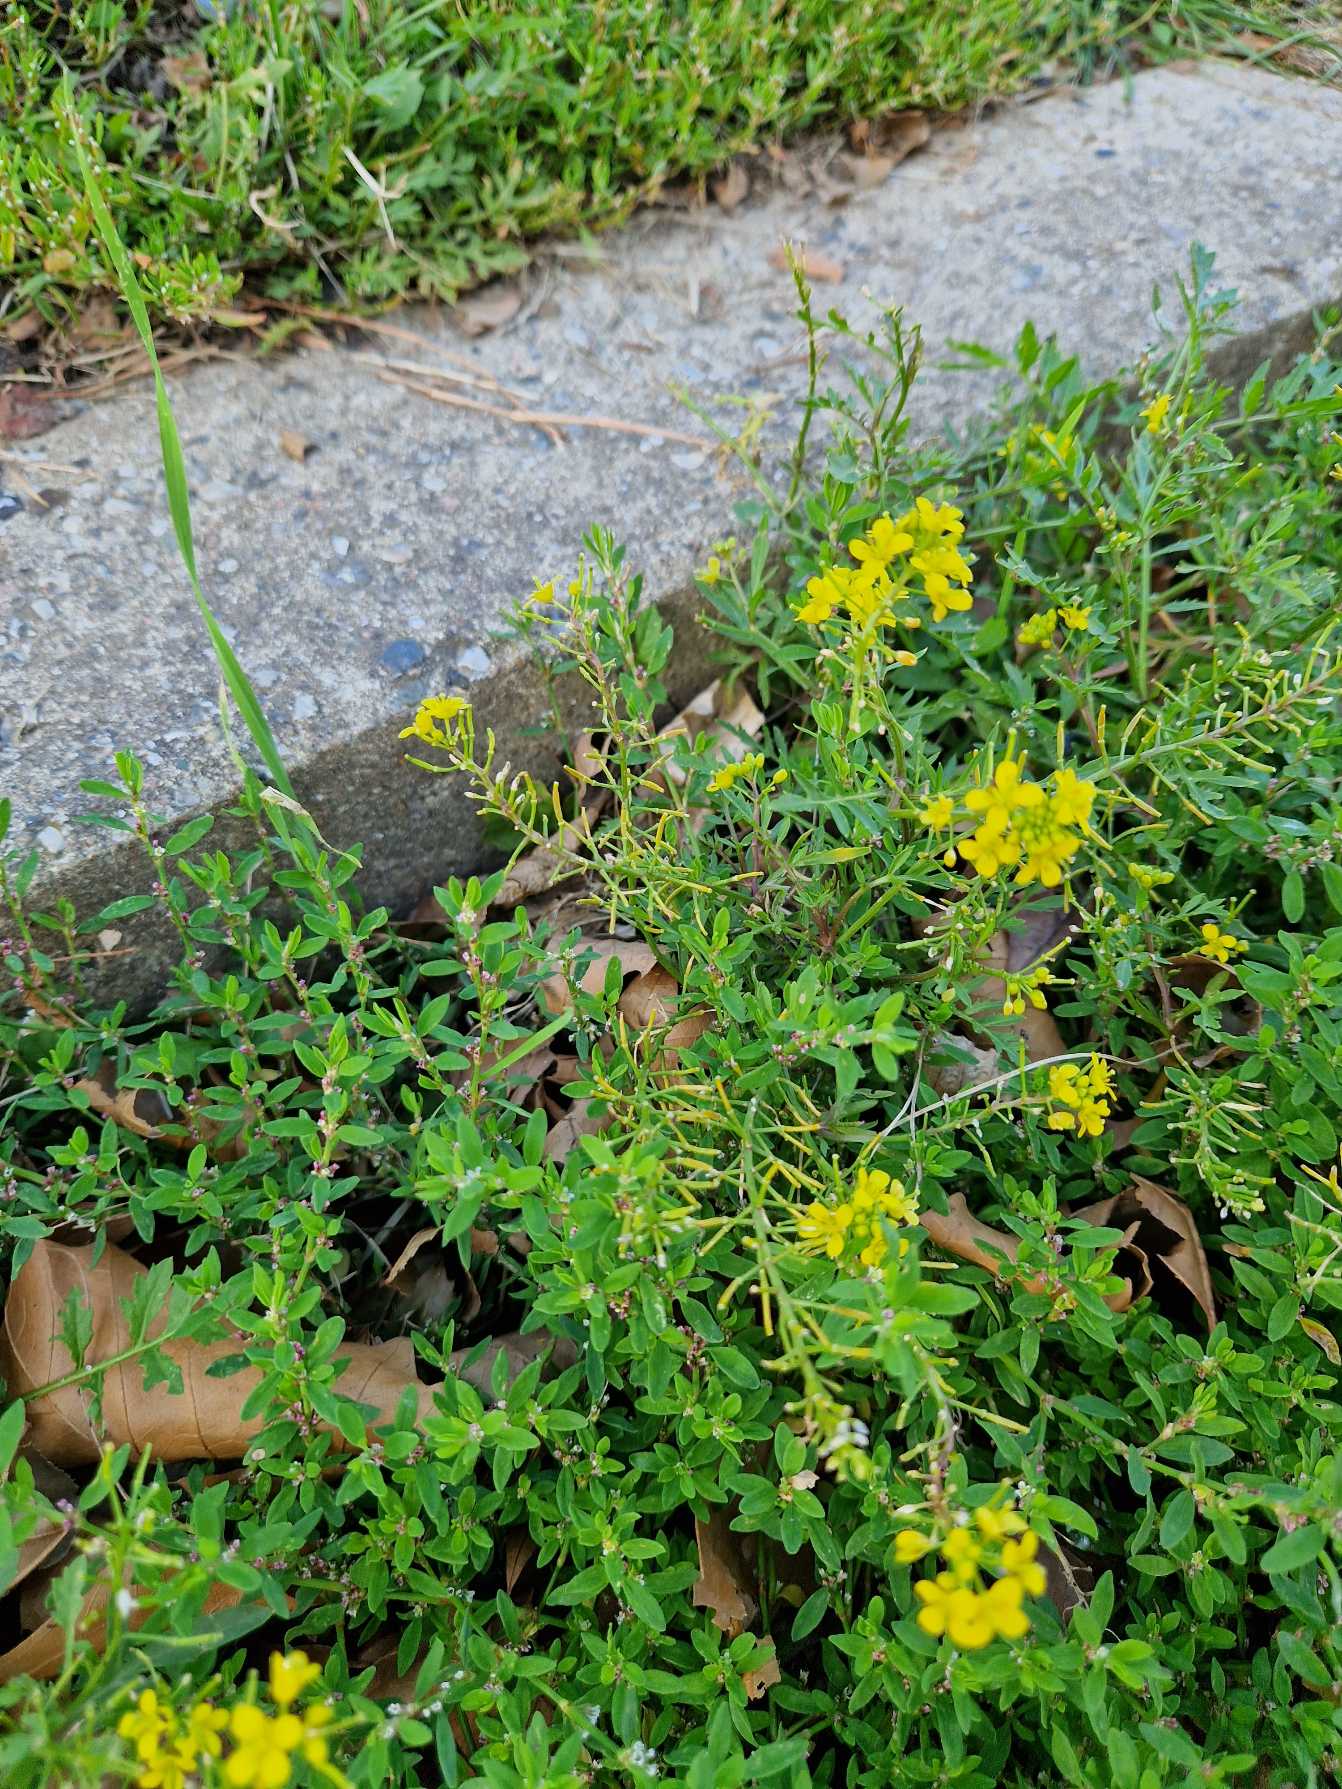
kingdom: Plantae
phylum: Tracheophyta
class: Magnoliopsida
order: Brassicales
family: Brassicaceae
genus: Rorippa
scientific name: Rorippa sylvestris
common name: Vej-guldkarse
